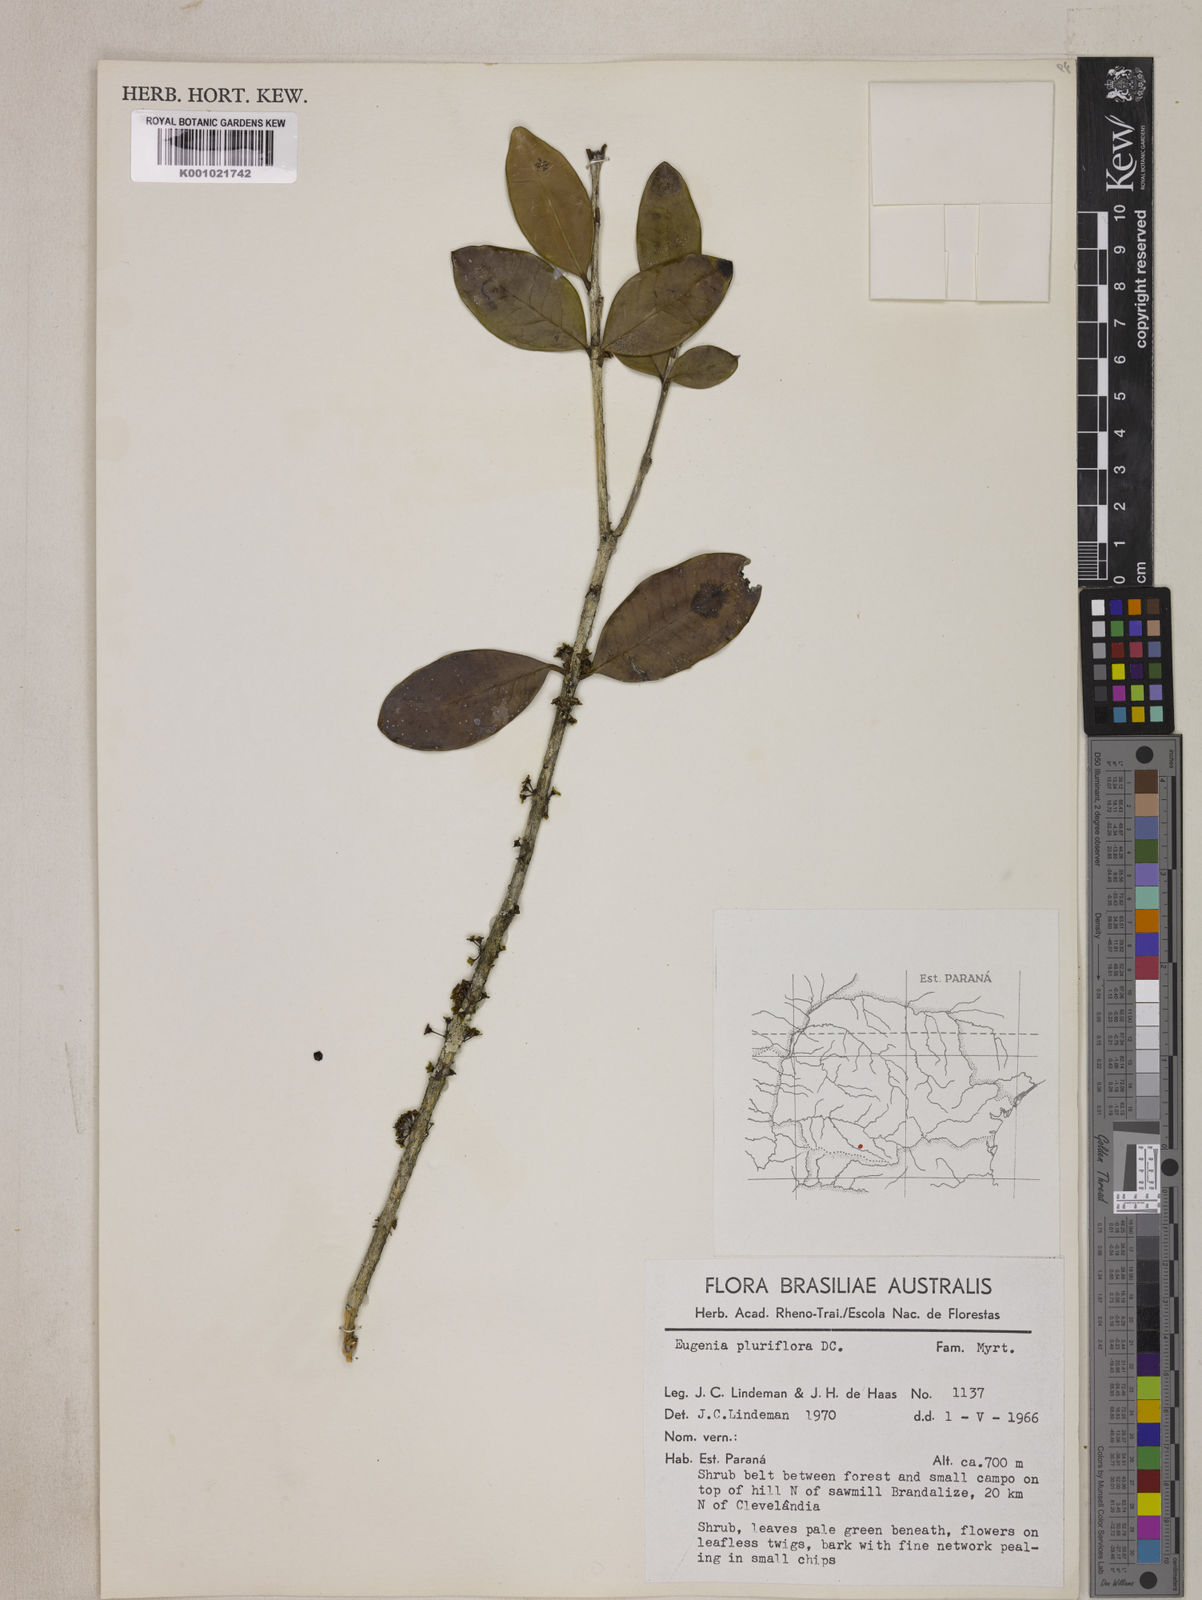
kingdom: Plantae
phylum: Tracheophyta
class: Magnoliopsida
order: Myrtales
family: Myrtaceae
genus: Eugenia
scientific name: Eugenia pluriflora
